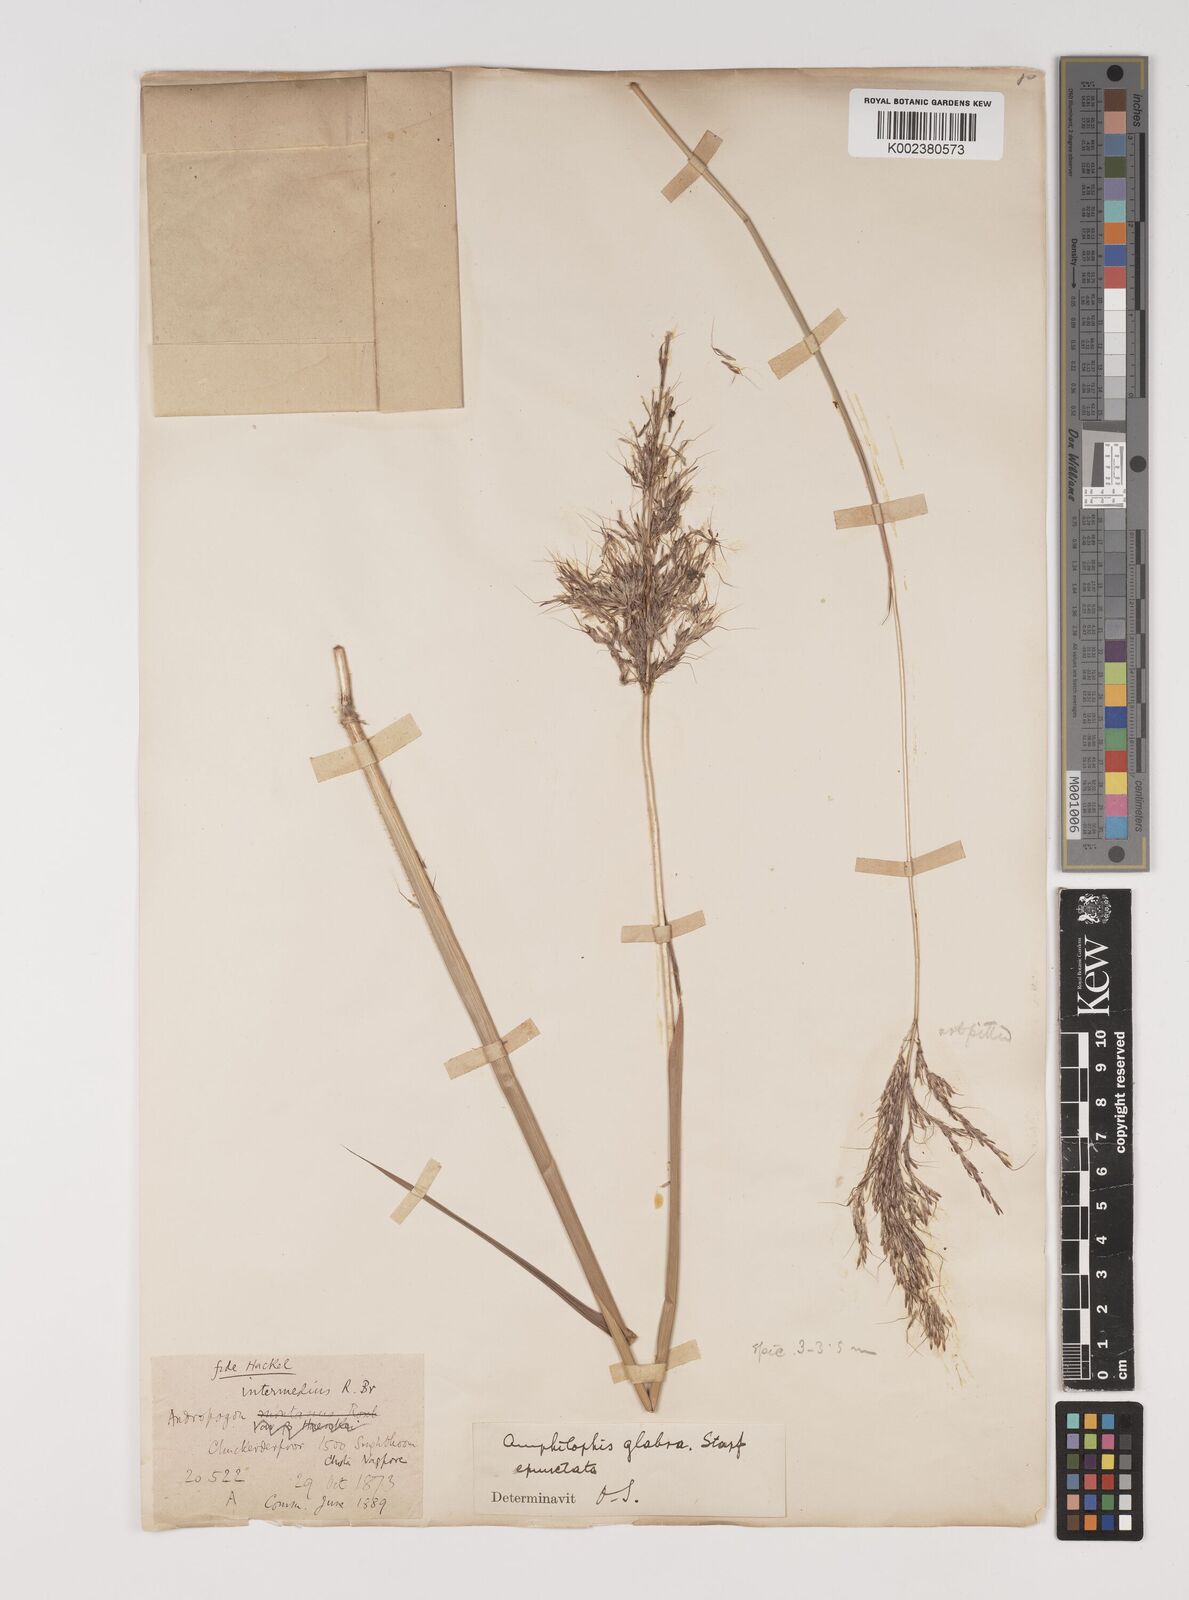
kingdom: Plantae
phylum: Tracheophyta
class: Liliopsida
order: Poales
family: Poaceae
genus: Bothriochloa
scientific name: Bothriochloa bladhii
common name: Caucasian bluestem
